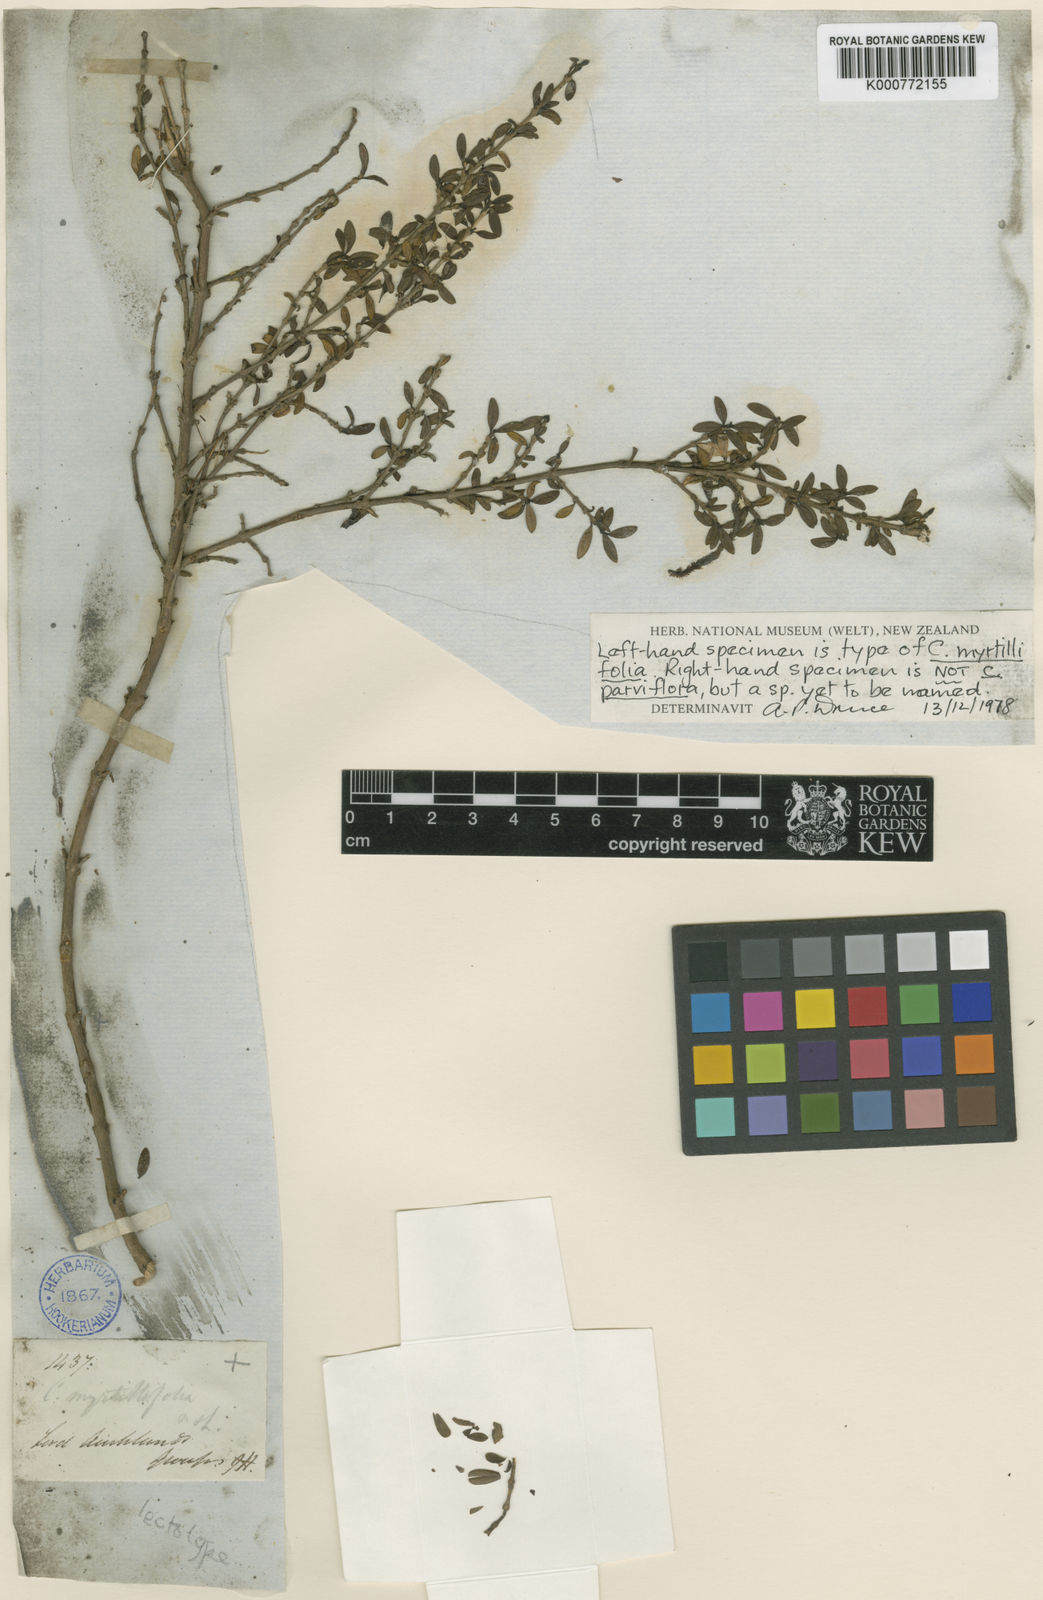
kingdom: Plantae
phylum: Tracheophyta
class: Magnoliopsida
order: Gentianales
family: Rubiaceae
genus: Coprosma
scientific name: Coprosma parviflora
